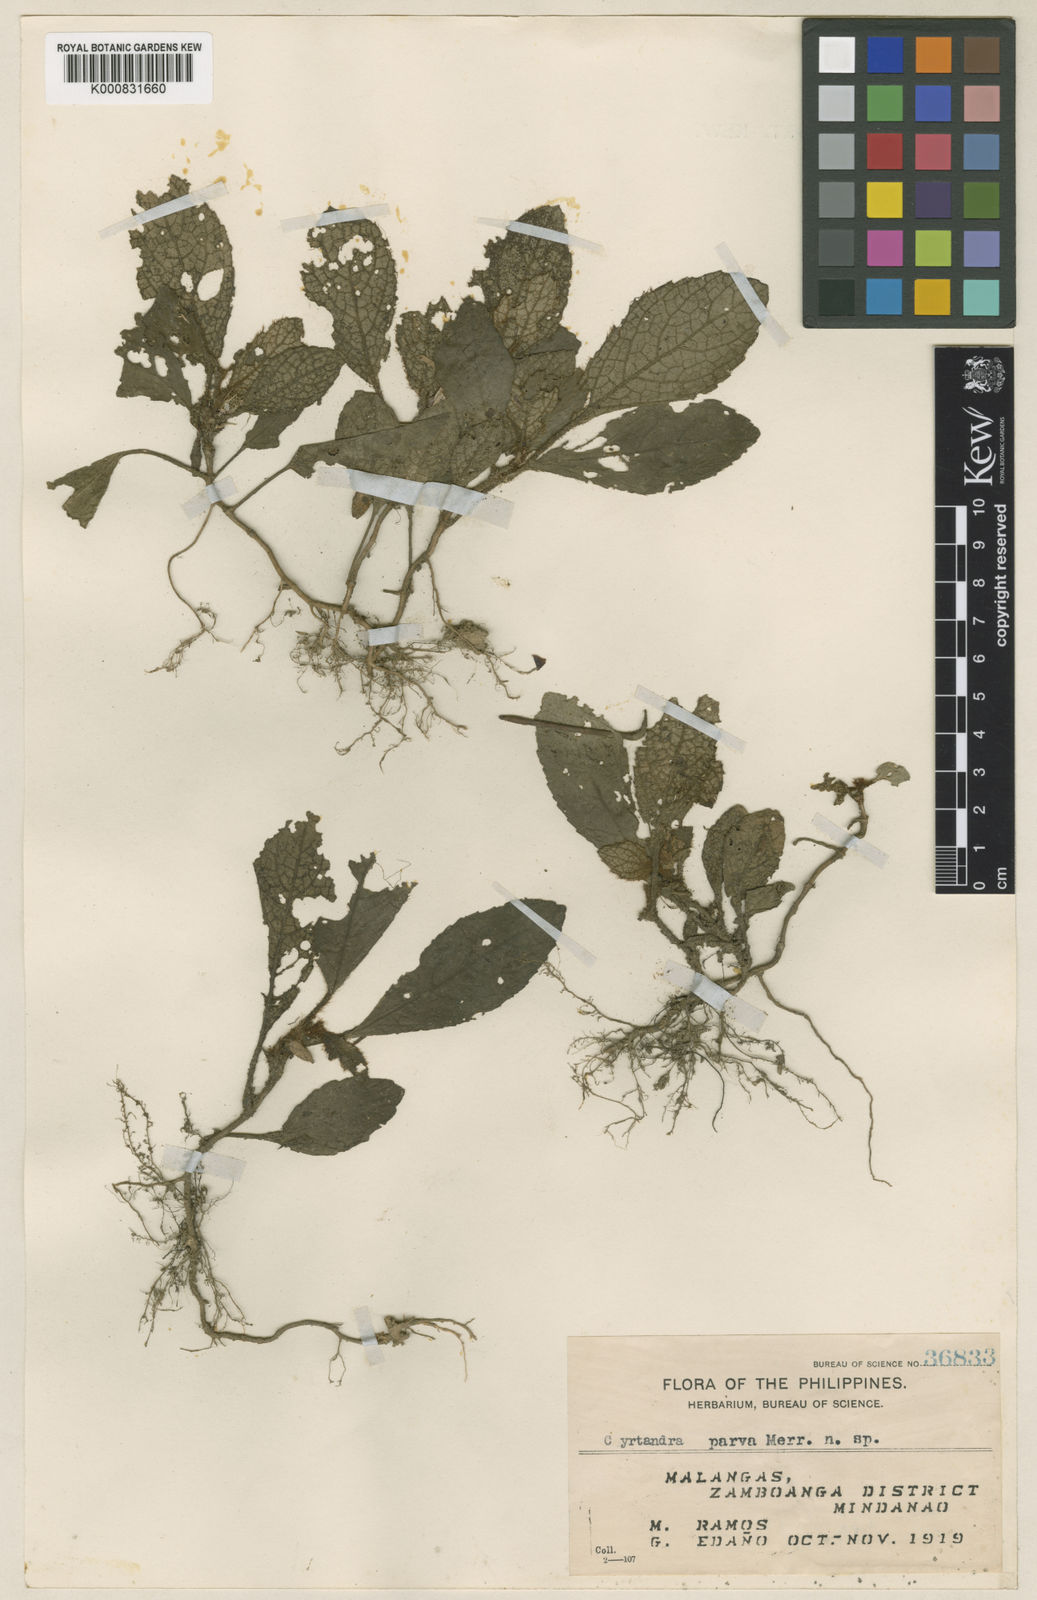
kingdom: Plantae
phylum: Tracheophyta
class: Magnoliopsida
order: Lamiales
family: Gesneriaceae
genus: Cyrtandra
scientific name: Cyrtandra parva
